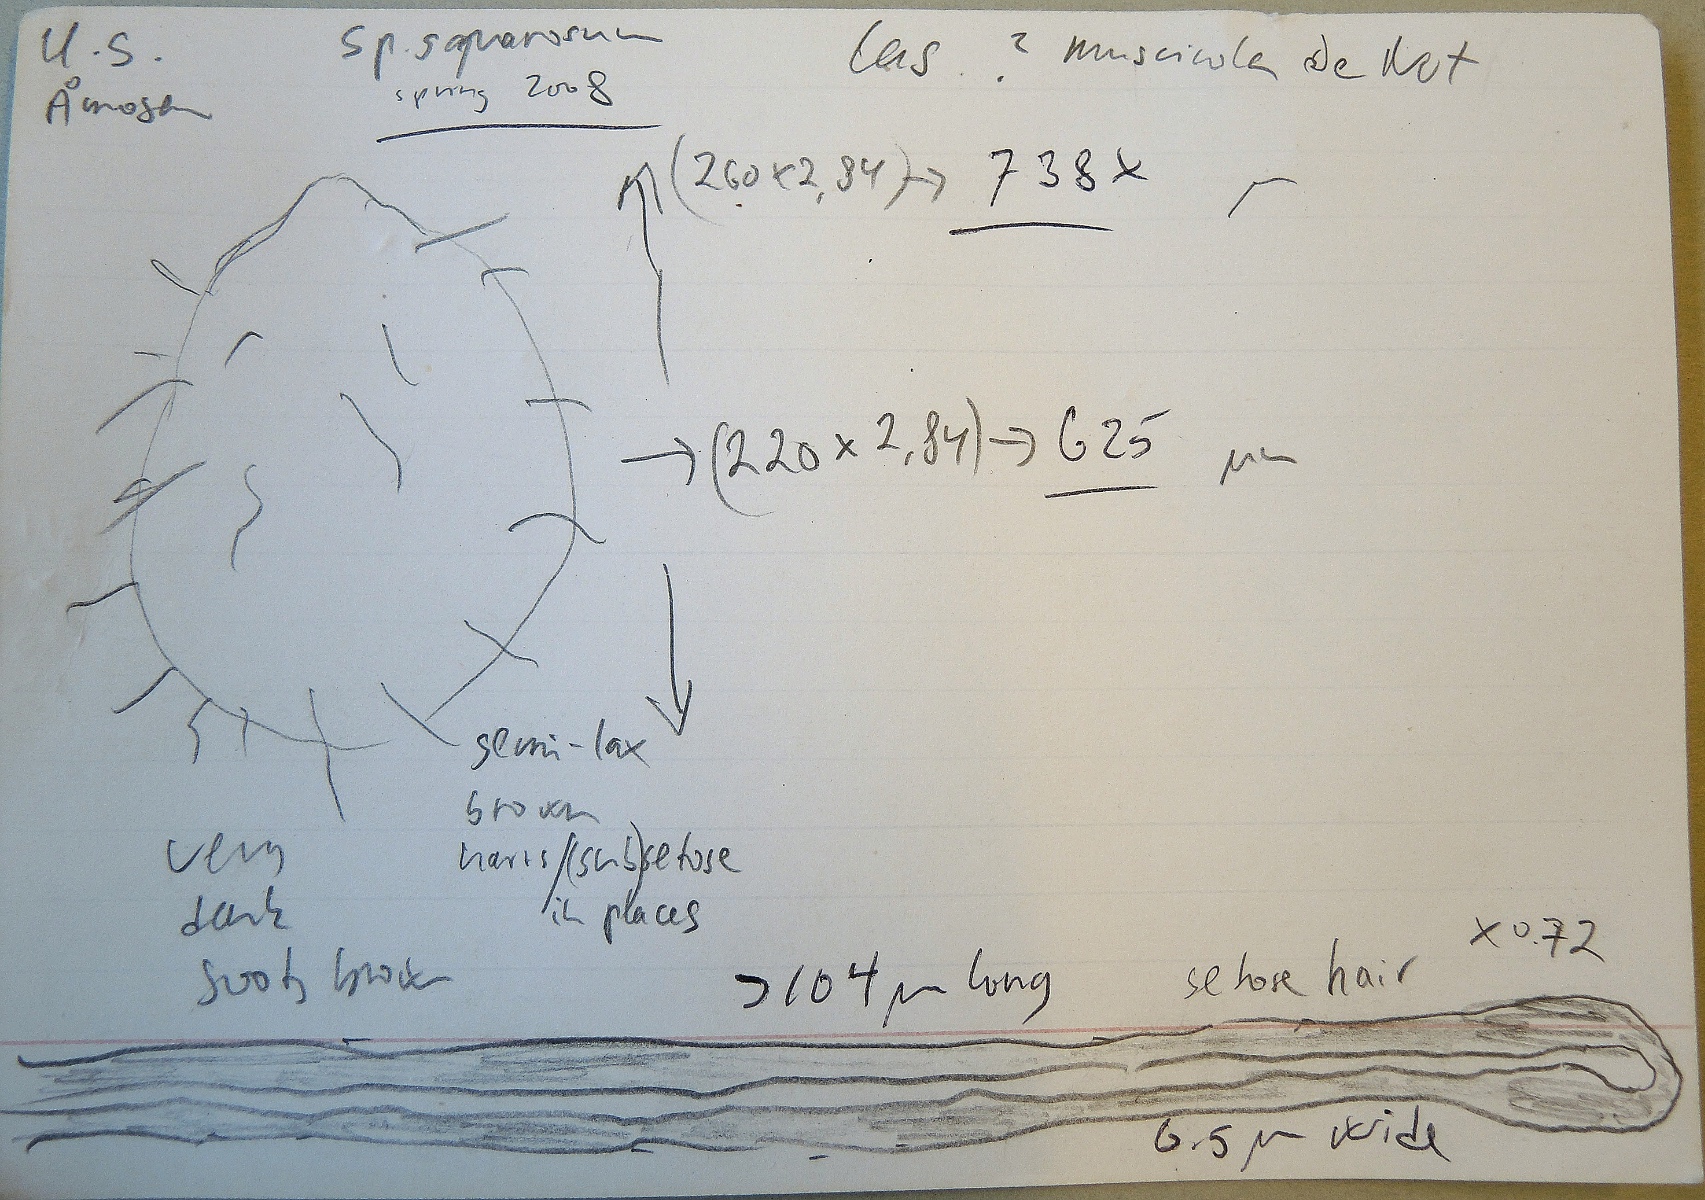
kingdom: Fungi
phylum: Ascomycota
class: Sordariomycetes
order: Sordariales
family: Lasiosphaeriaceae
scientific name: Lasiosphaeriaceae
